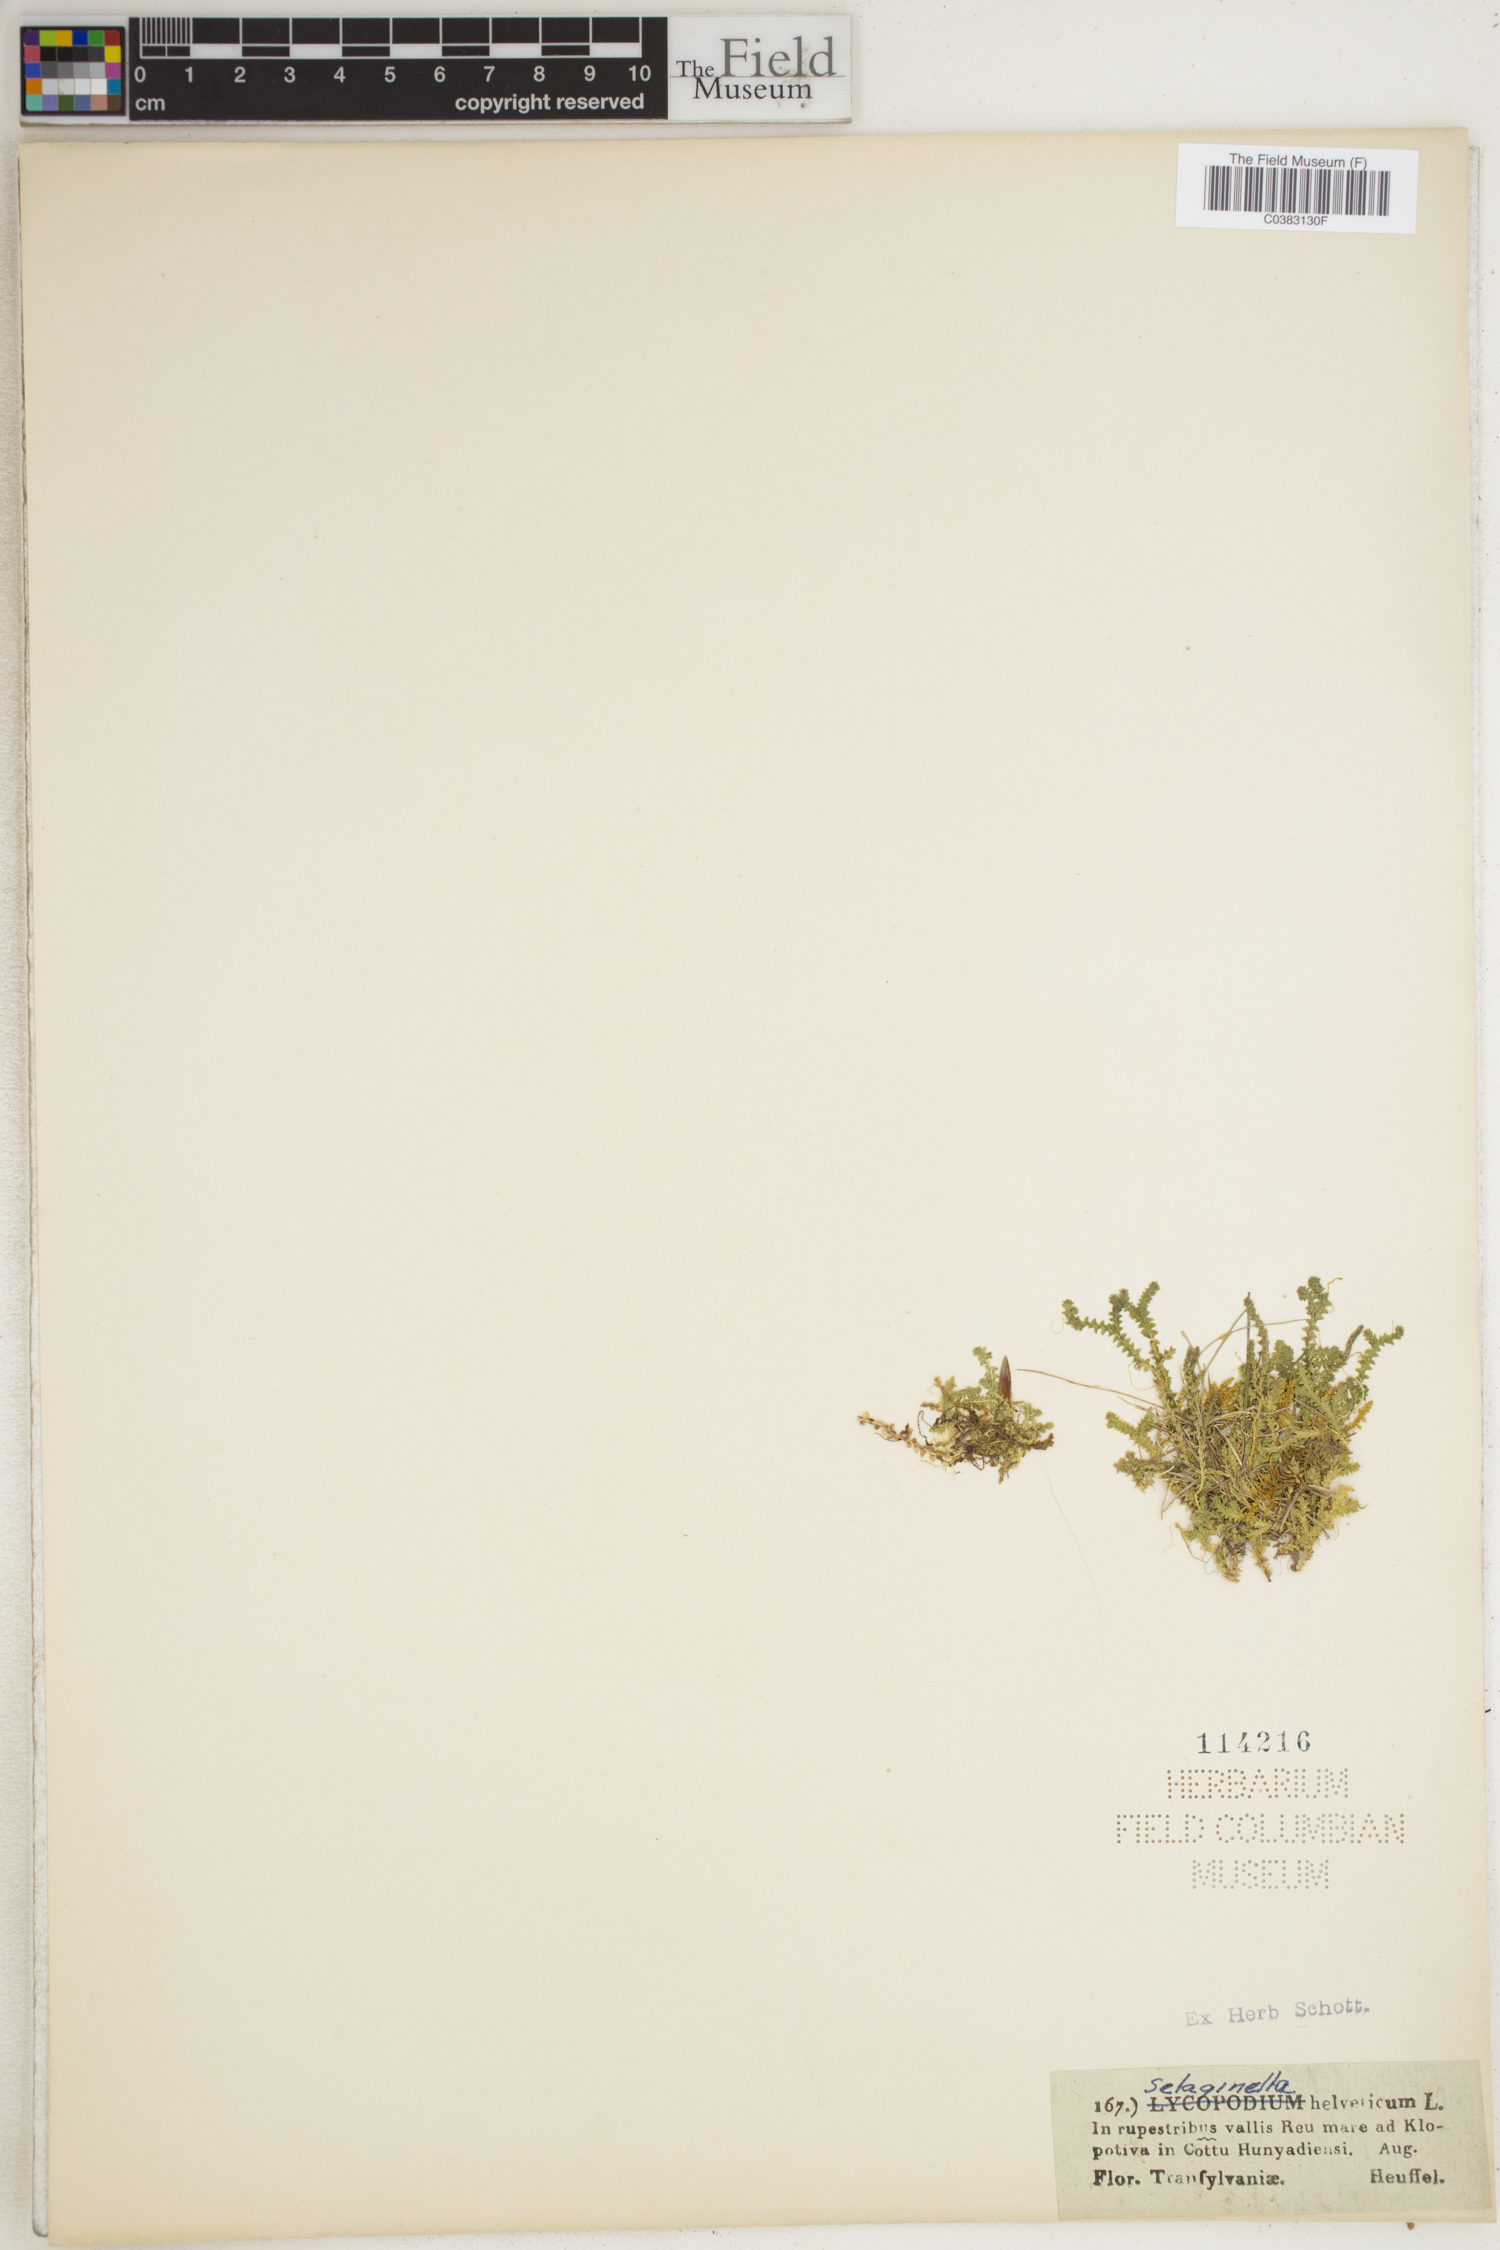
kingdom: Plantae
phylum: Tracheophyta
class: Lycopodiopsida
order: Selaginellales
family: Selaginellaceae
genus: Selaginella
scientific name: Selaginella helvetica
